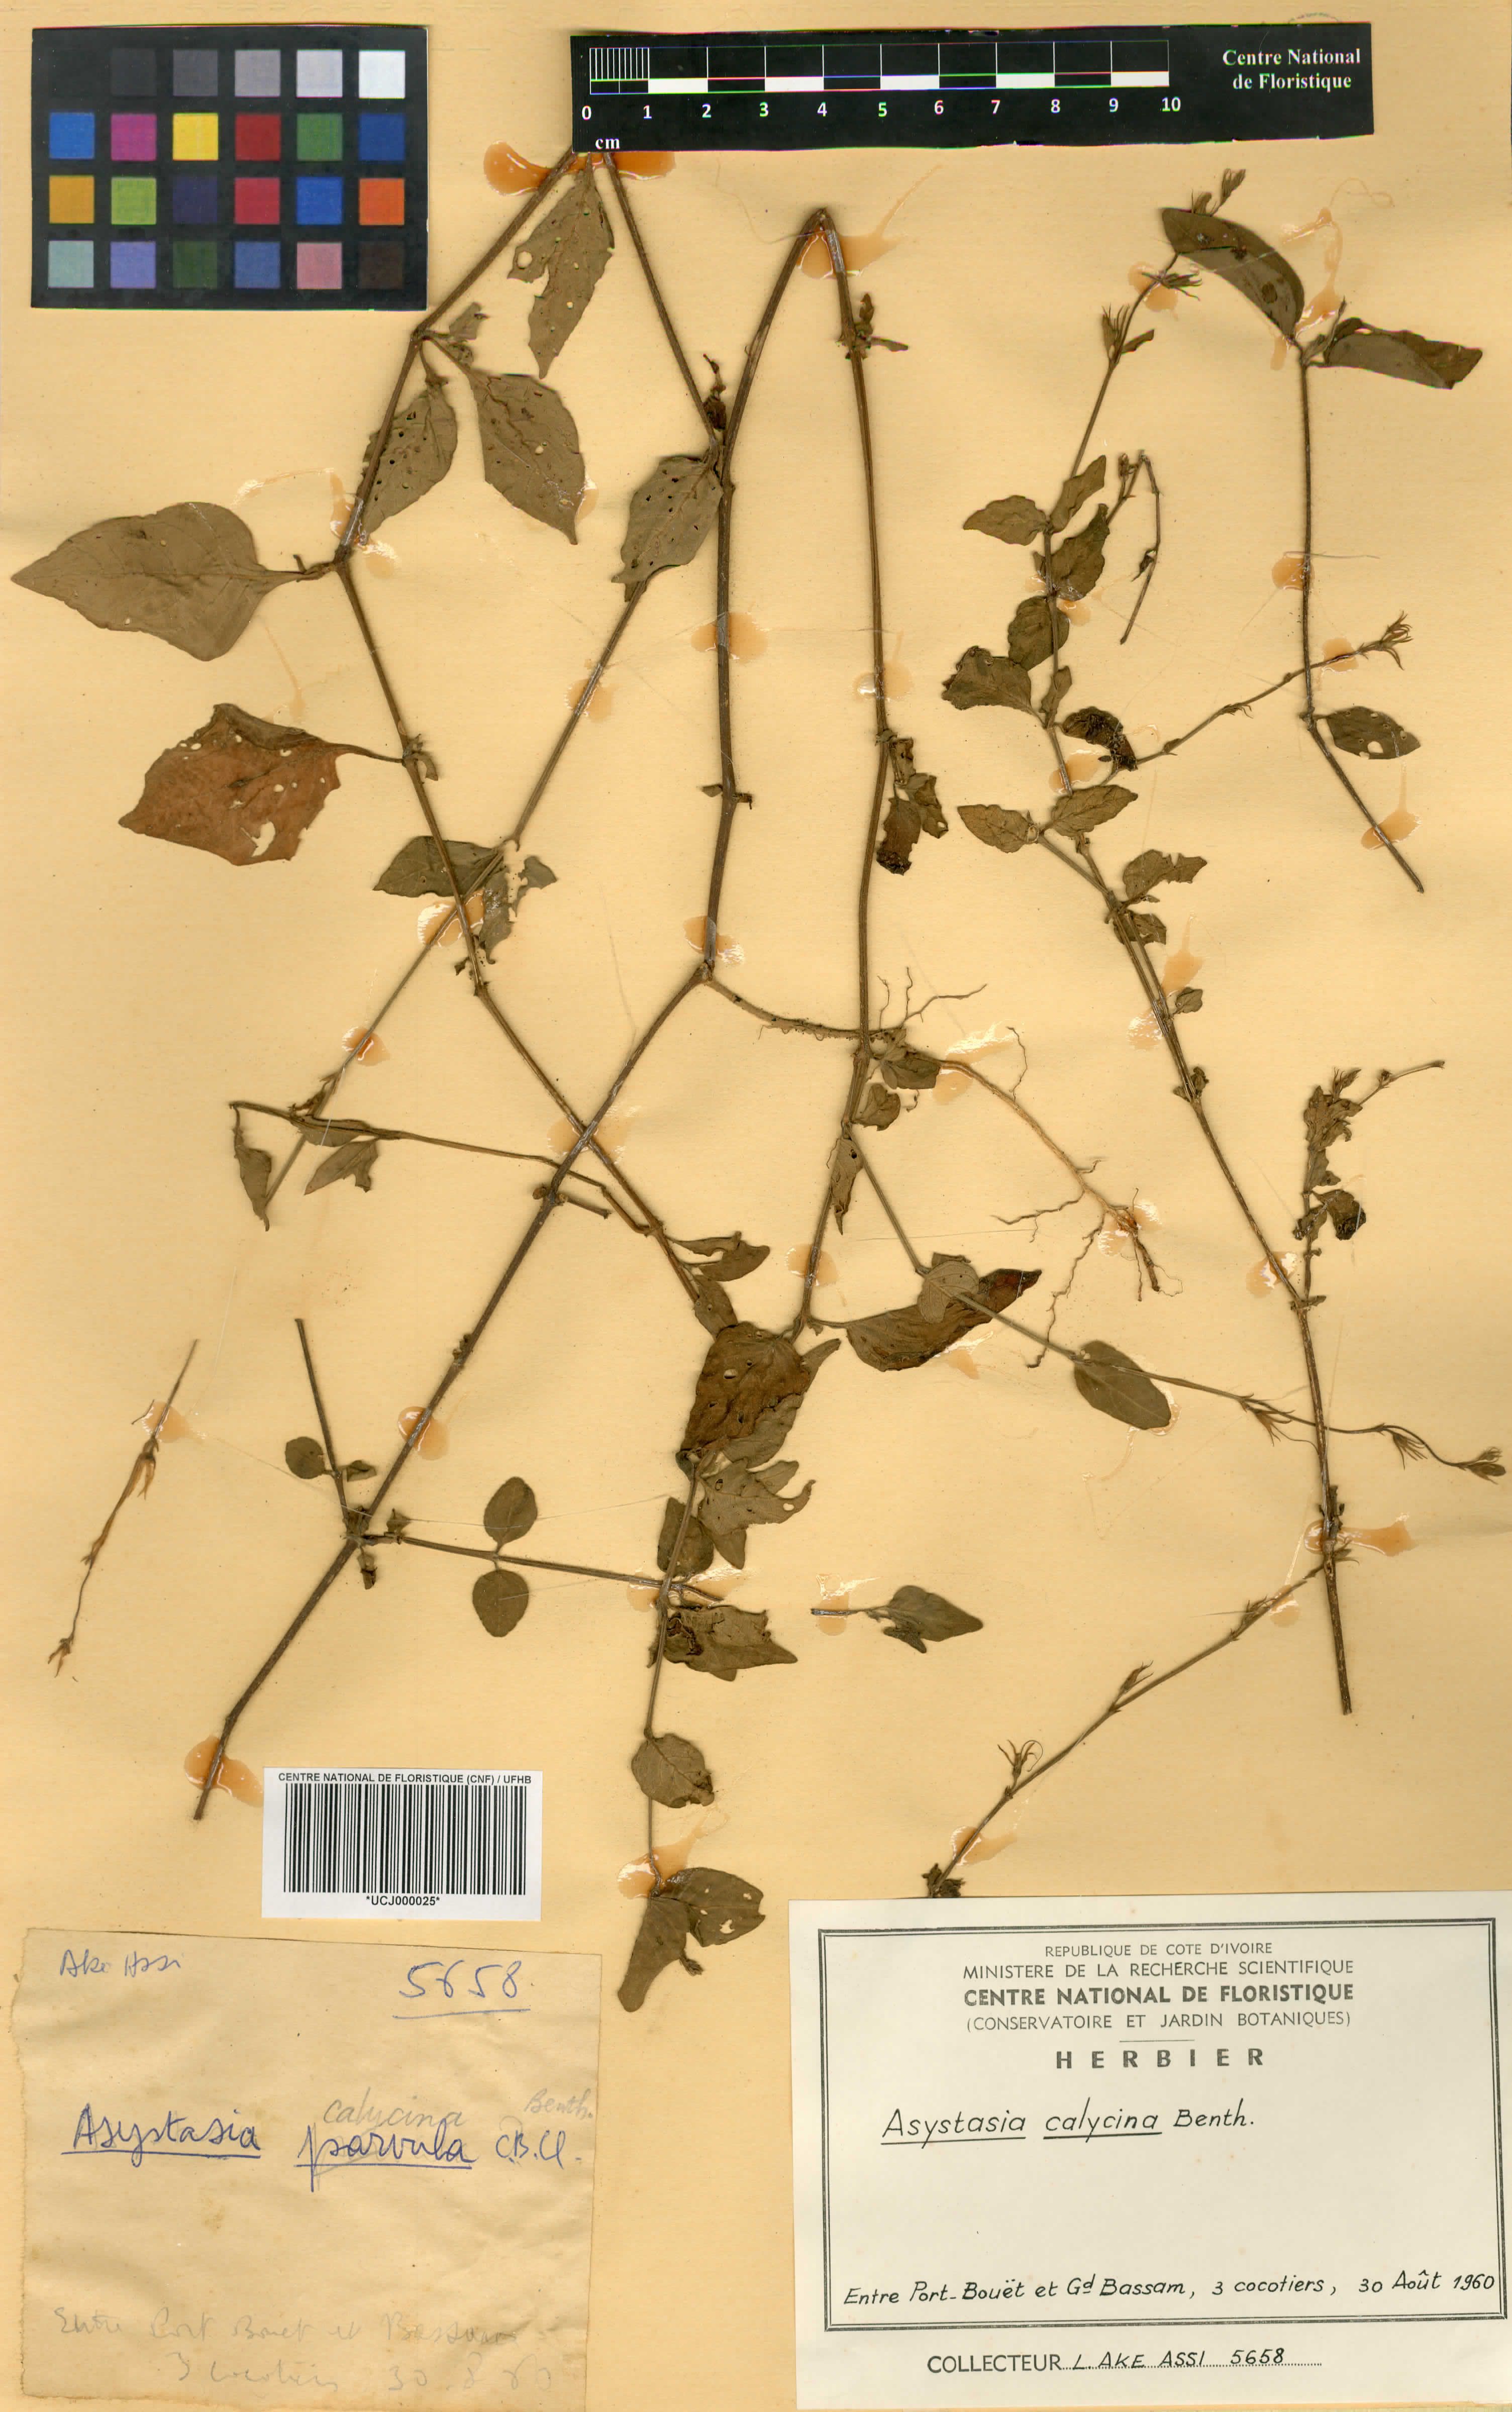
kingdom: Plantae
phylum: Tracheophyta
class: Magnoliopsida
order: Lamiales
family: Acanthaceae
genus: Asystasia
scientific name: Asystasia buettneri
